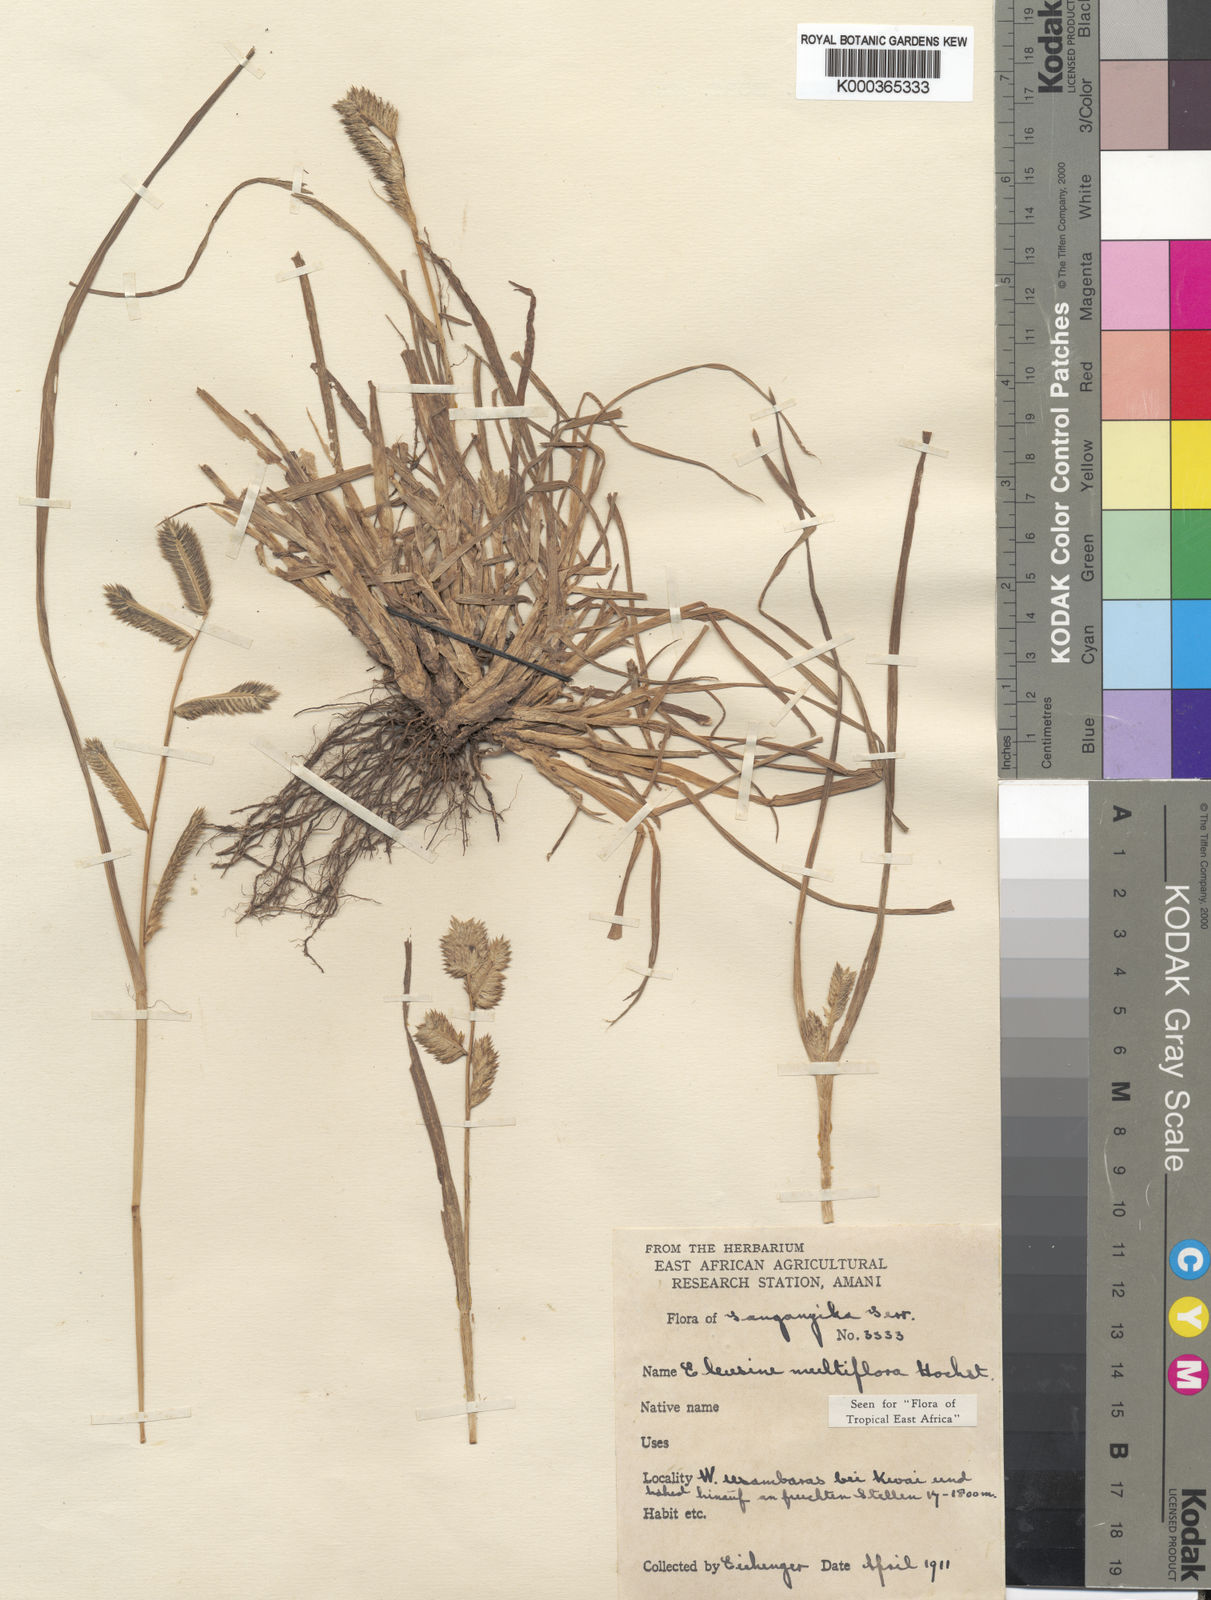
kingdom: Plantae
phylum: Tracheophyta
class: Liliopsida
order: Poales
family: Poaceae
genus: Eleusine
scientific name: Eleusine multiflora
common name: Fat-spiked yard-grass
